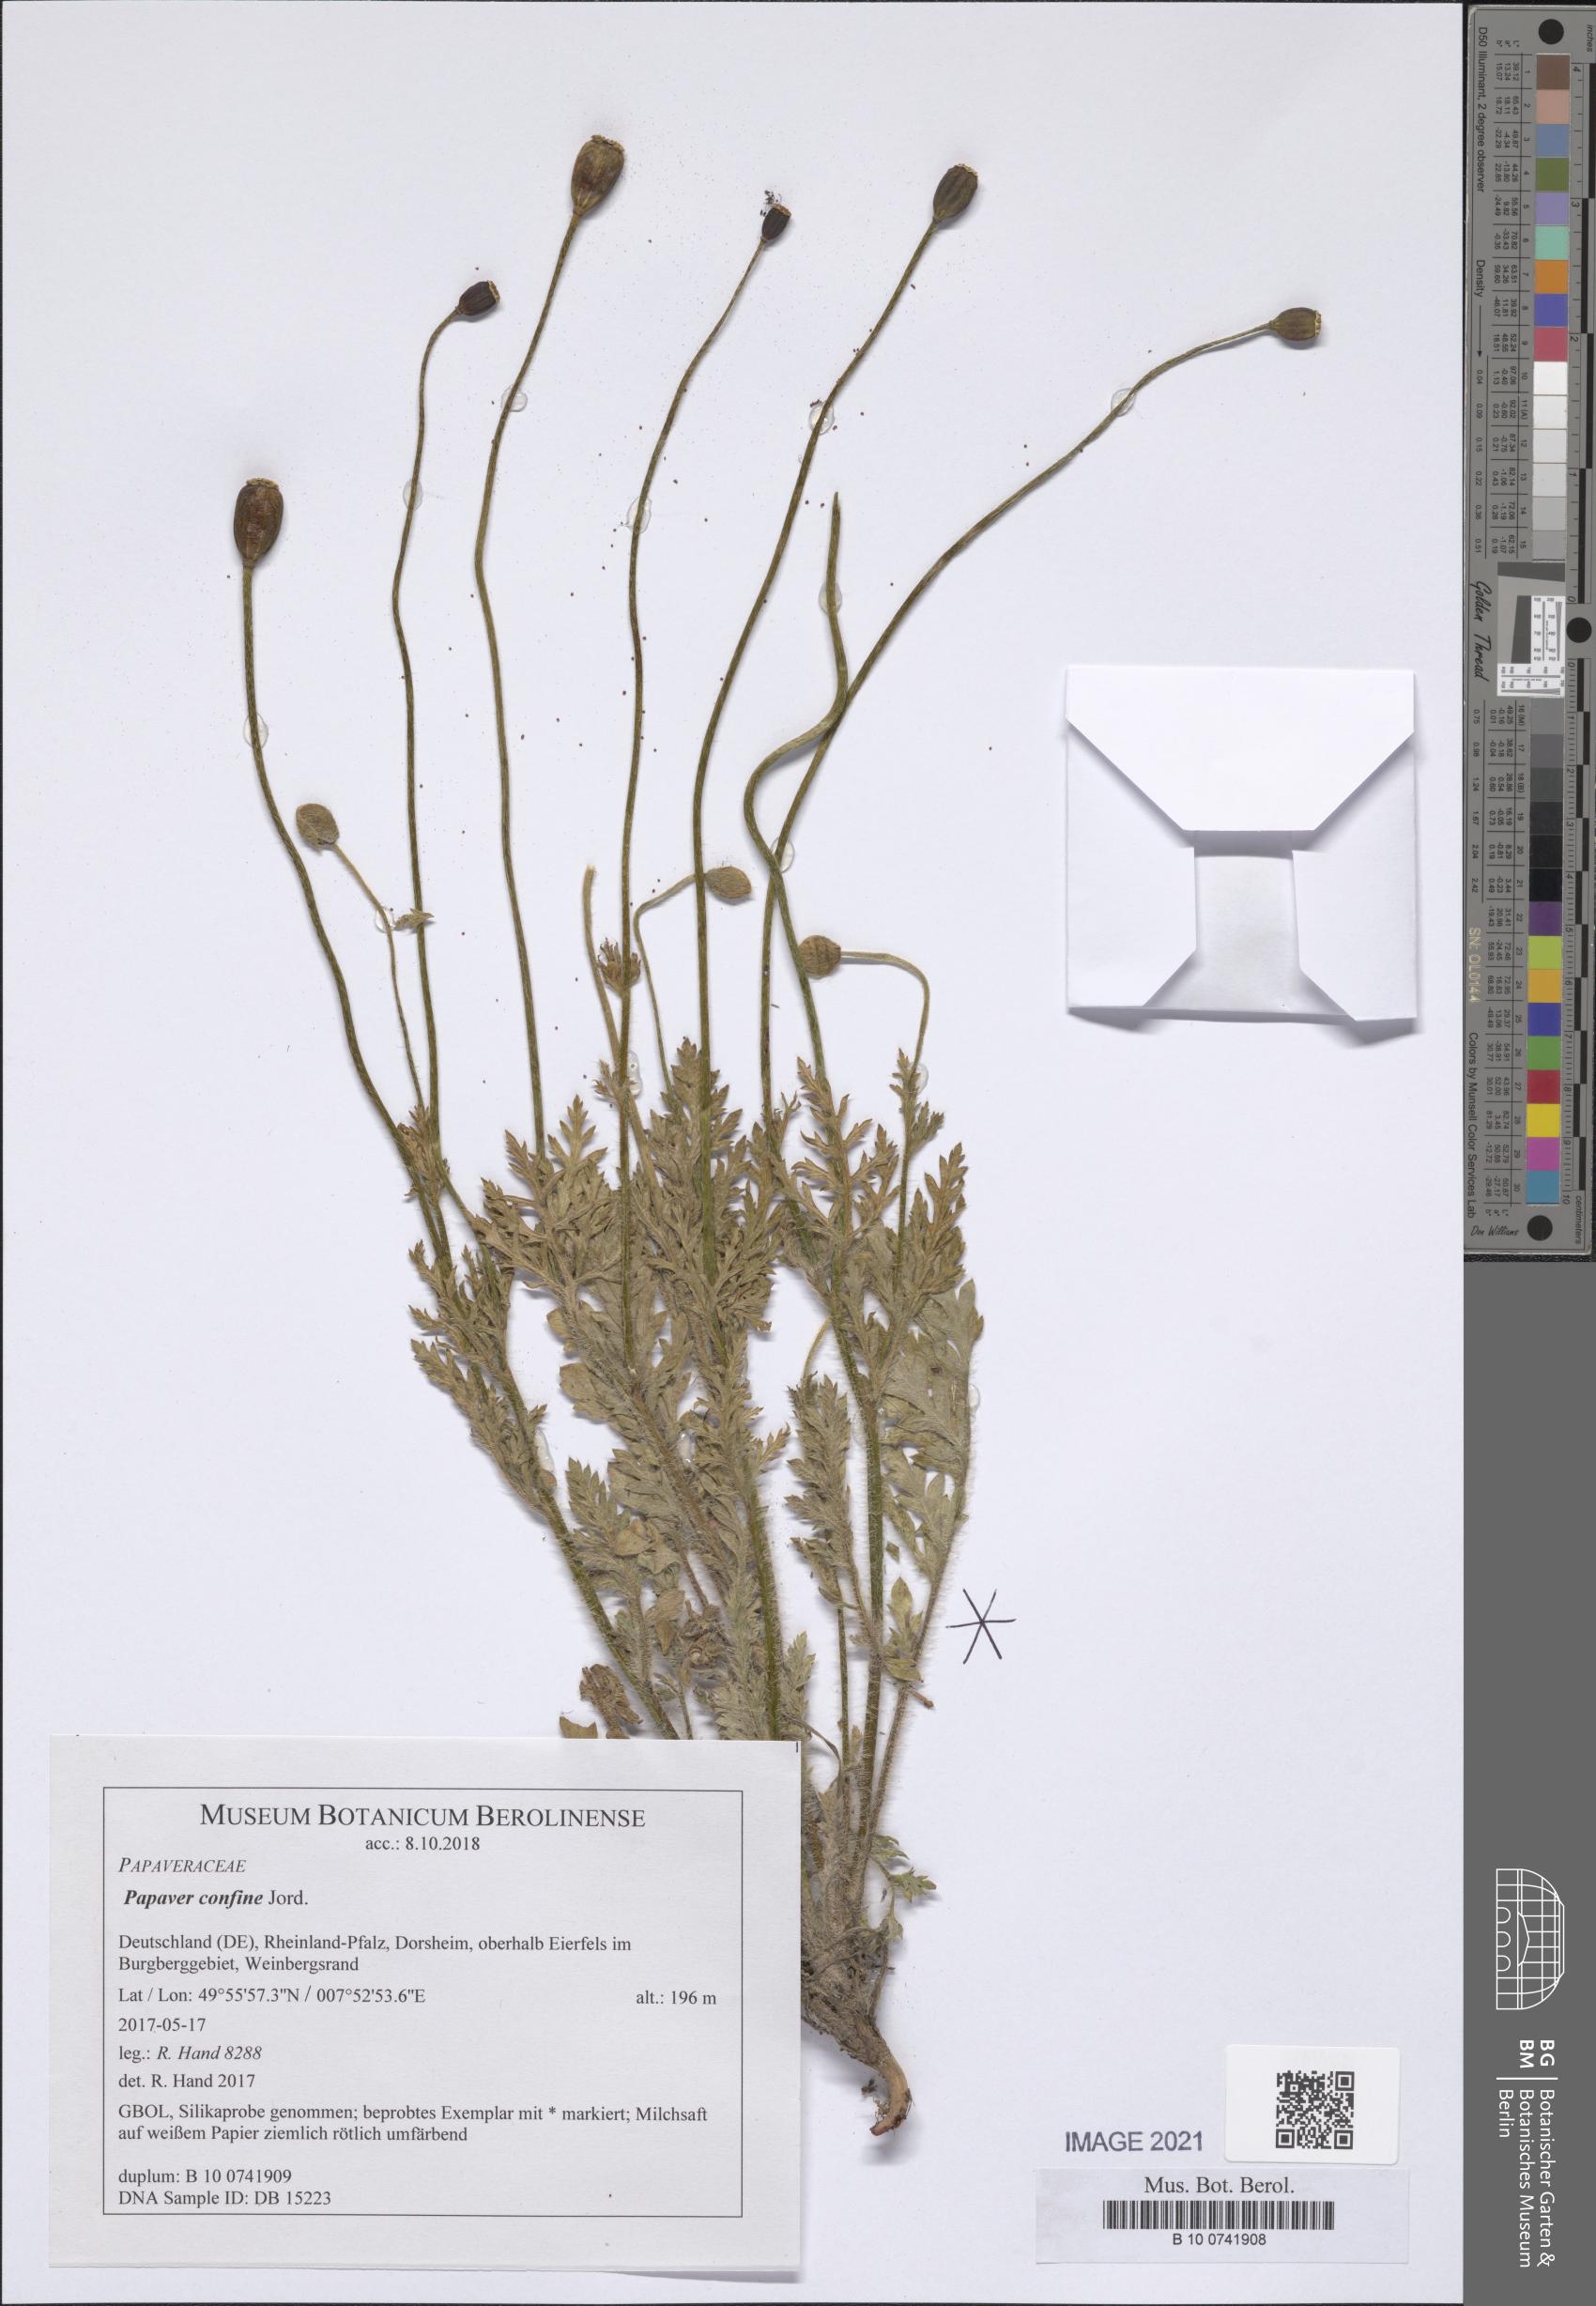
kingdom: Plantae
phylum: Tracheophyta
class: Magnoliopsida
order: Ranunculales
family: Papaveraceae
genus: Papaver
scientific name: Papaver confine
